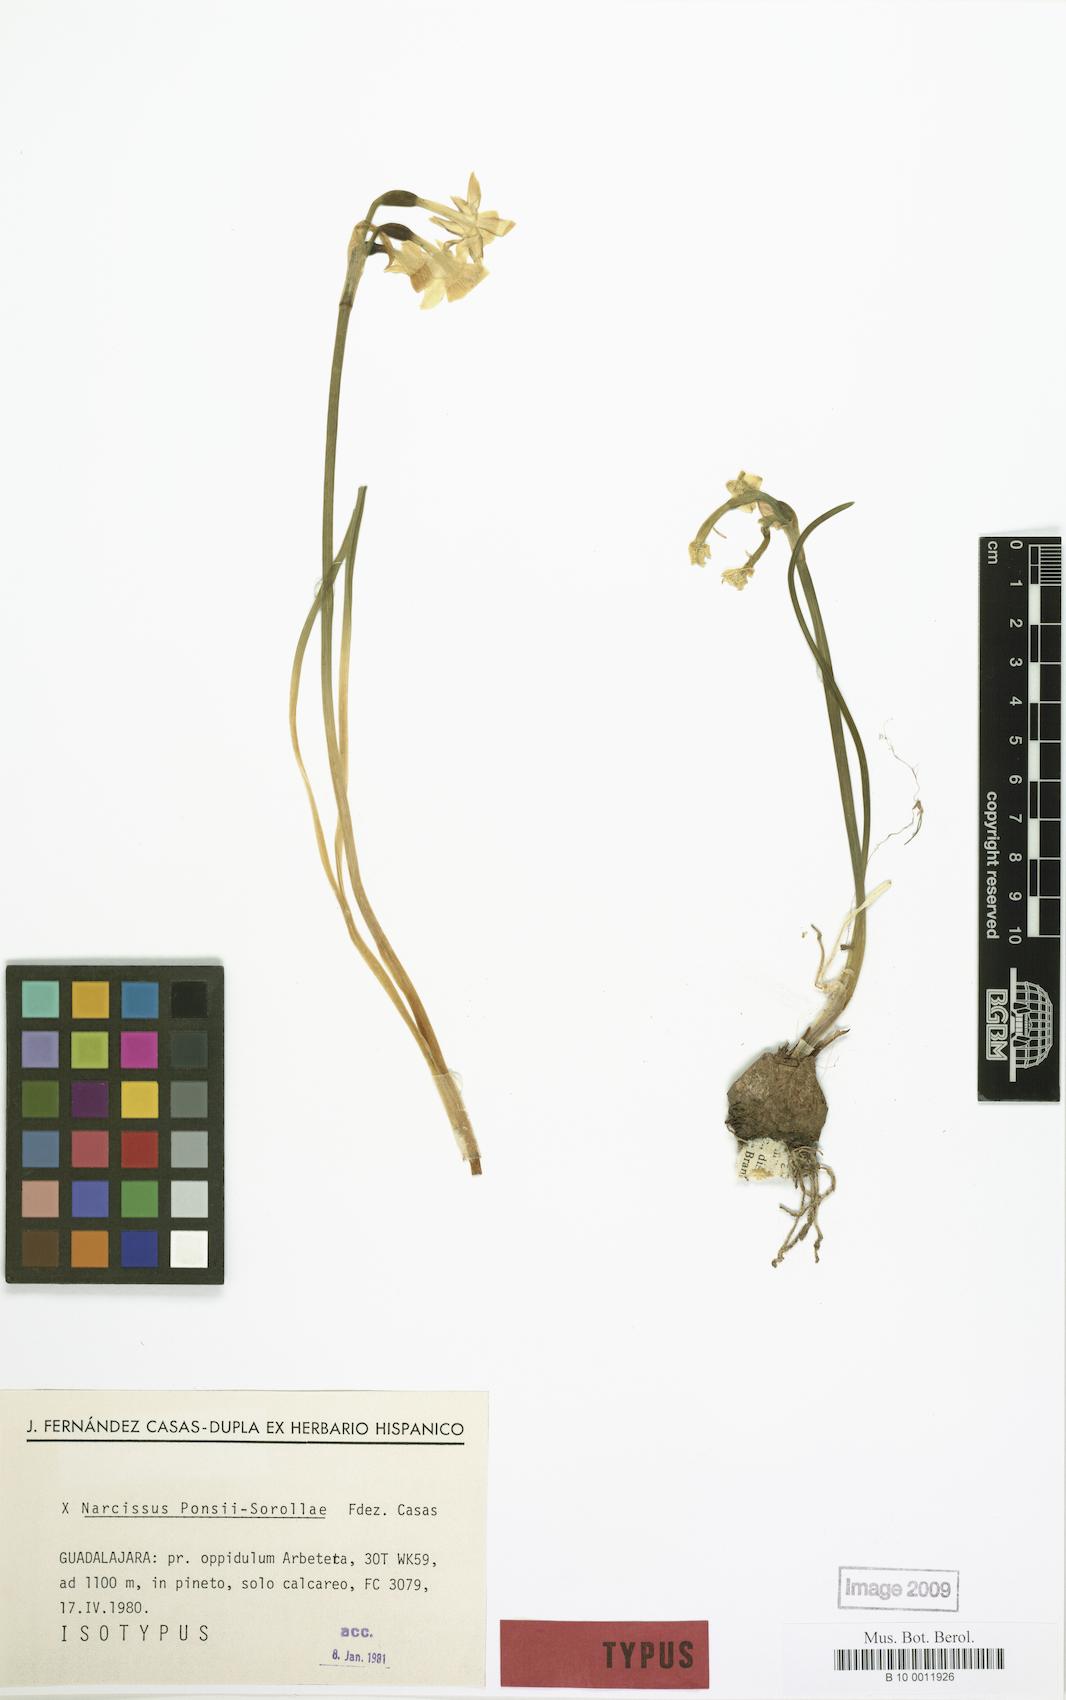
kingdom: Plantae
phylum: Tracheophyta
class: Liliopsida
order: Asparagales
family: Amaryllidaceae
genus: Narcissus
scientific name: Narcissus ponsii-sorollae
